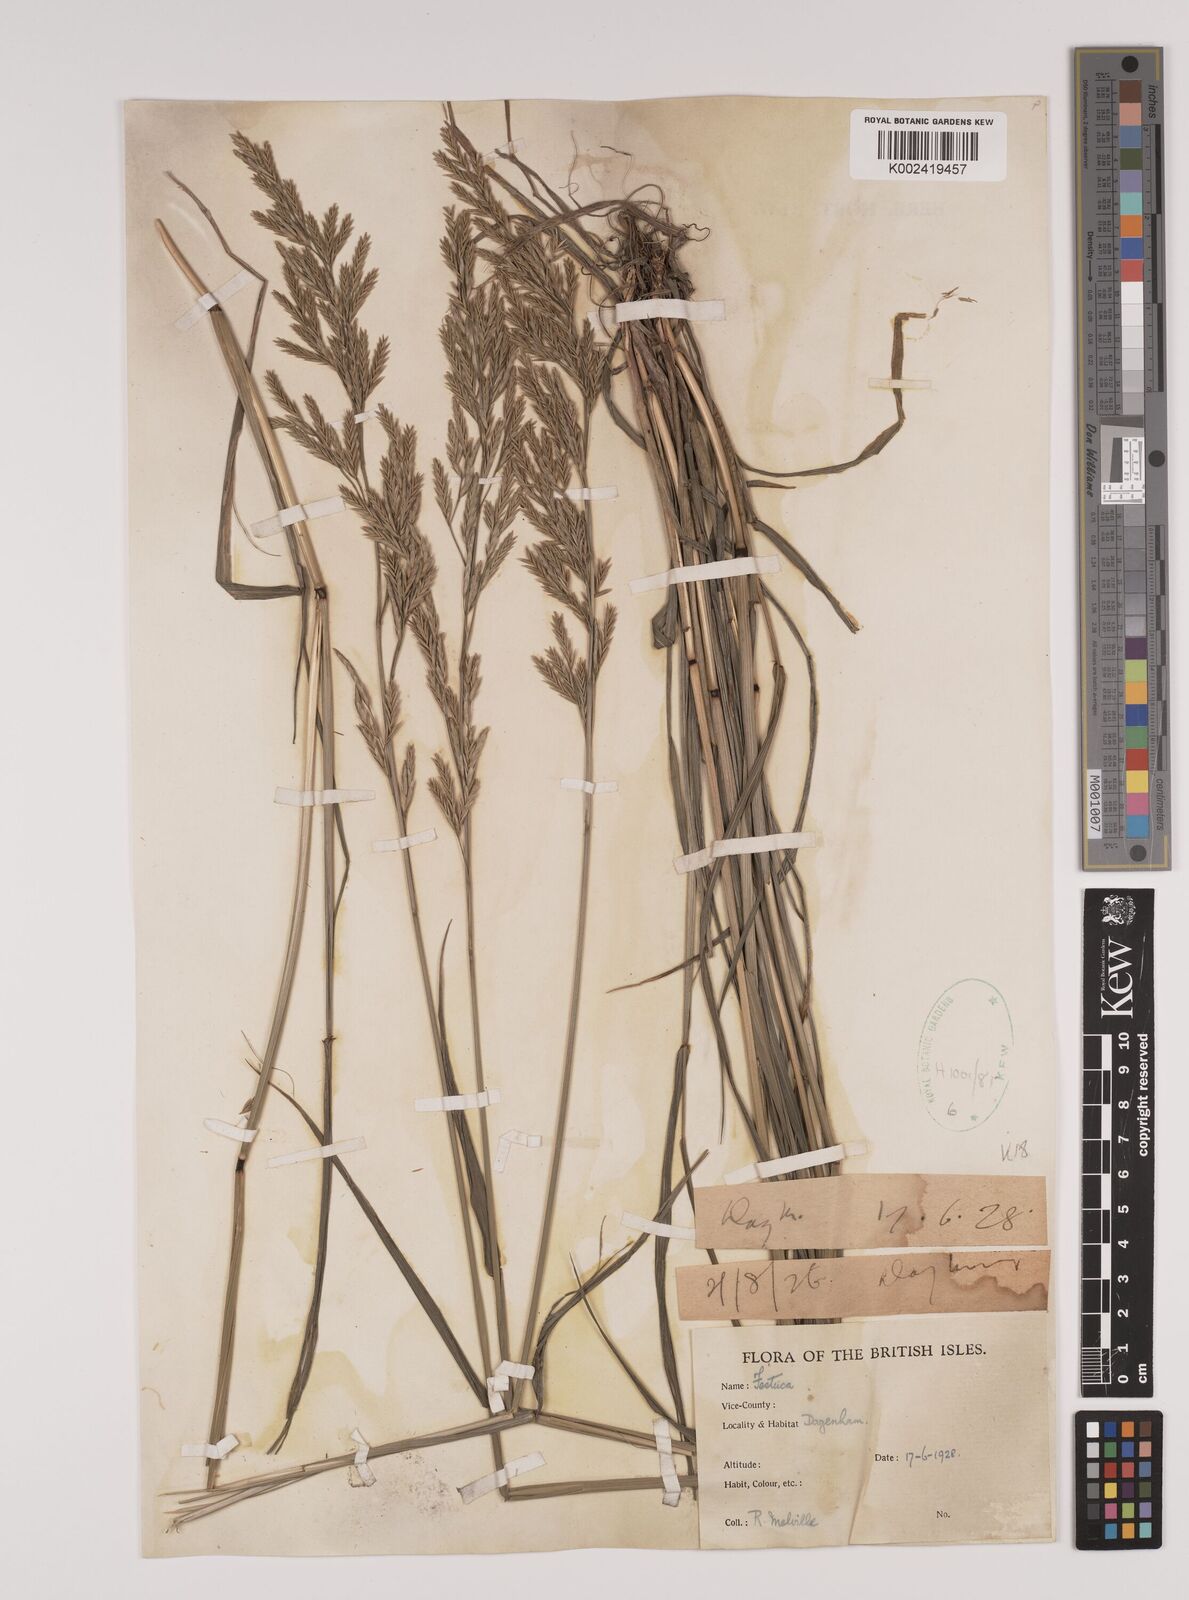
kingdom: Plantae
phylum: Tracheophyta
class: Liliopsida
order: Poales
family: Poaceae
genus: Lolium
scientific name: Lolium pratense
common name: Dover grass
